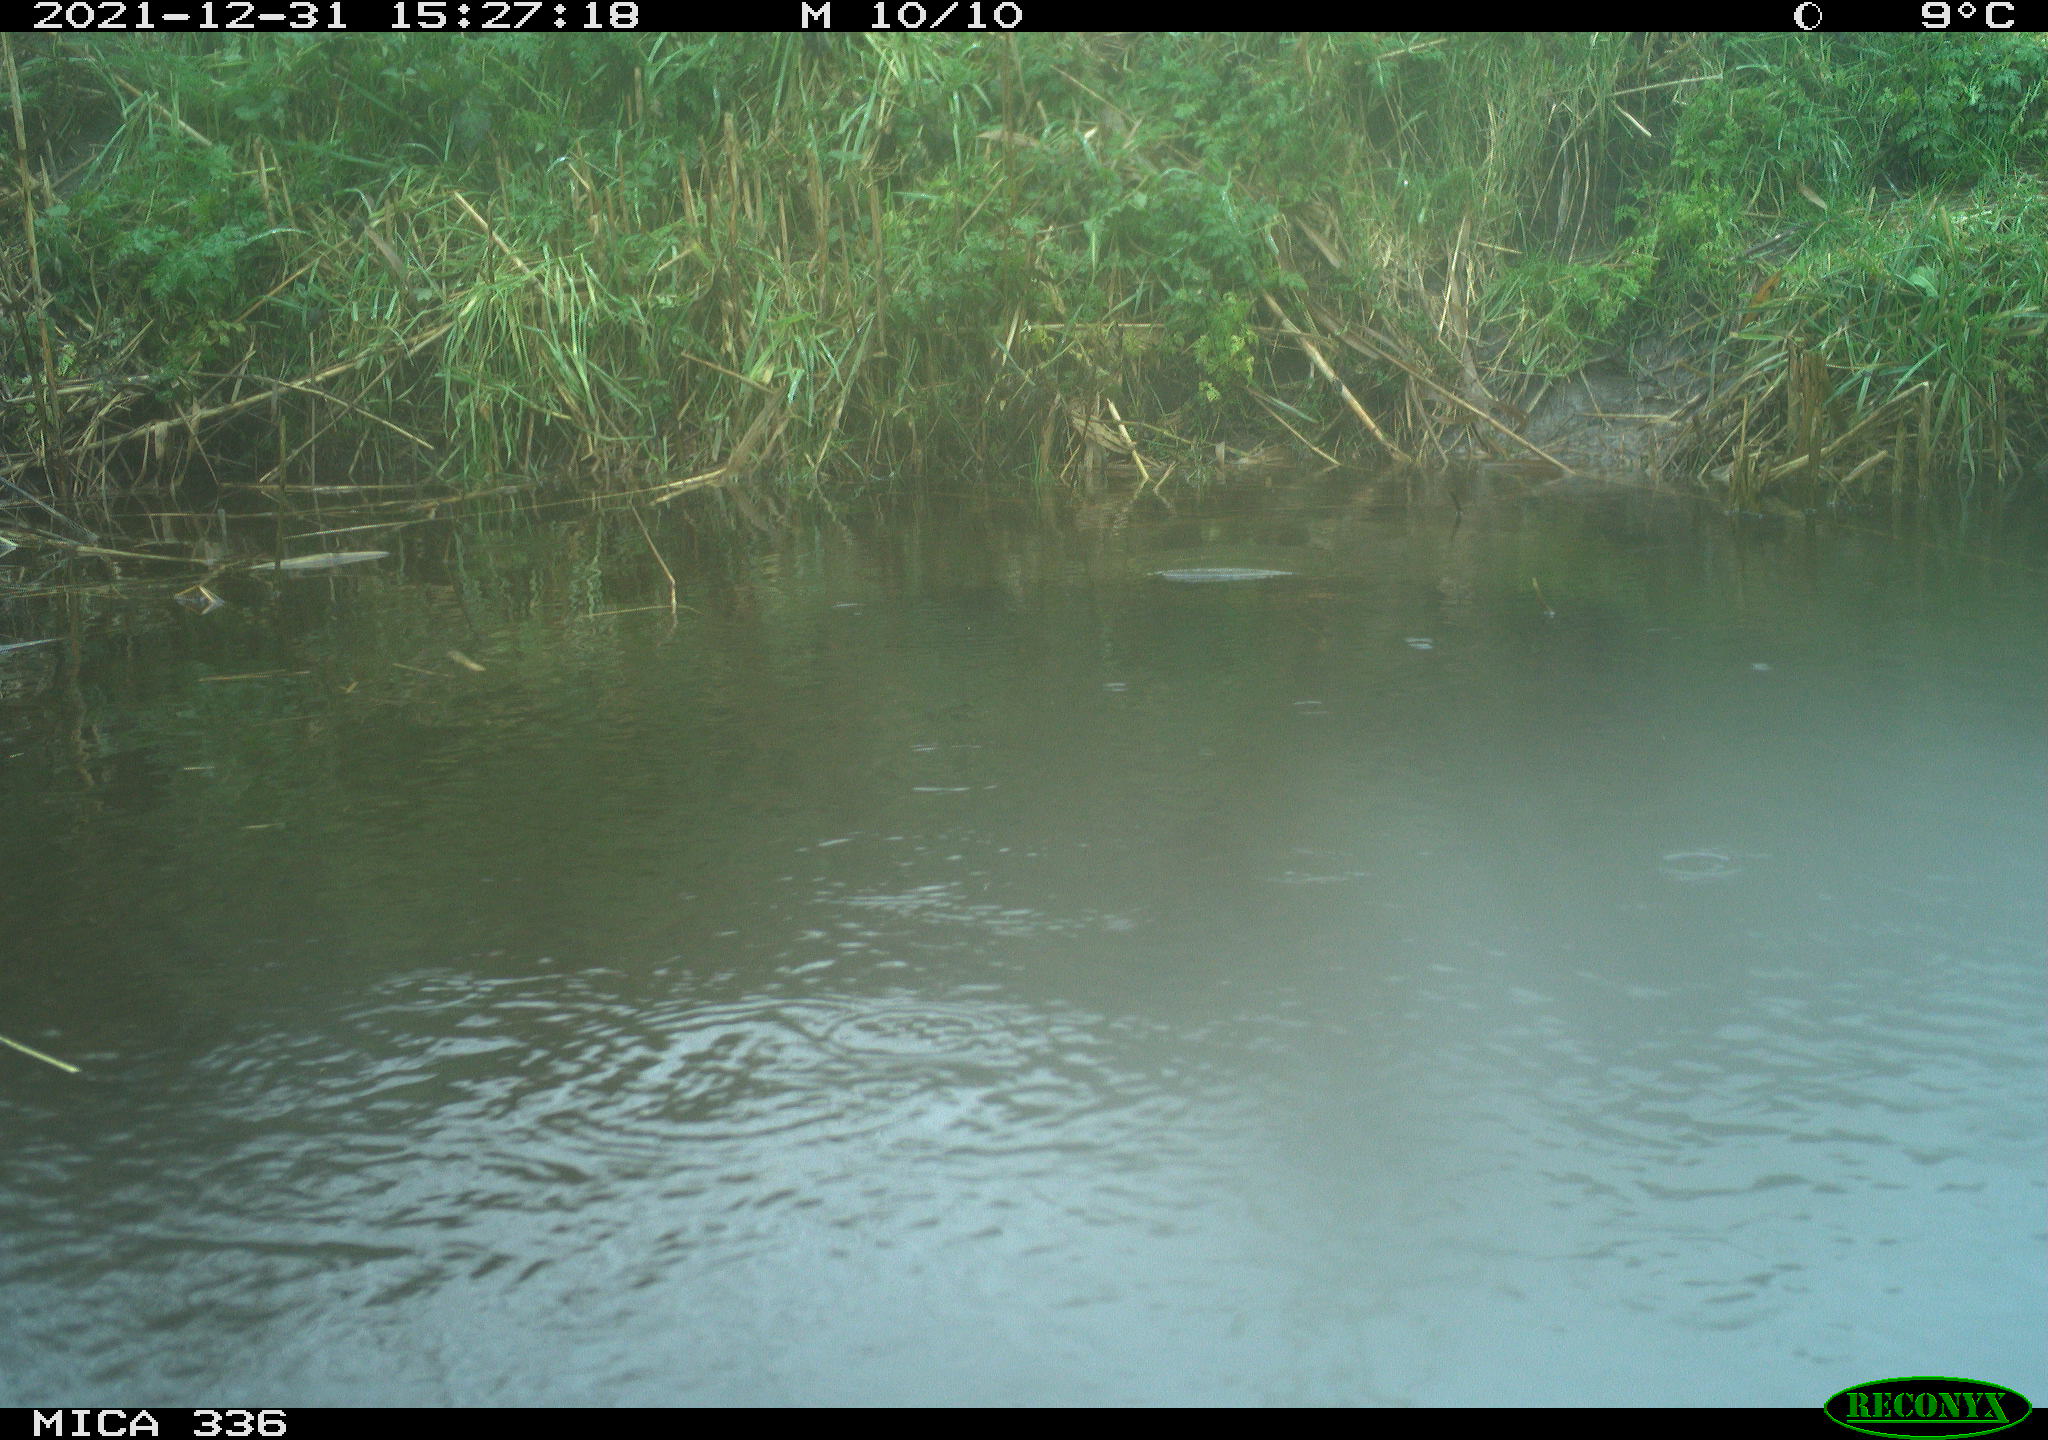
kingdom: Animalia
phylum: Chordata
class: Aves
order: Gruiformes
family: Rallidae
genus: Gallinula
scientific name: Gallinula chloropus
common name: Common moorhen
